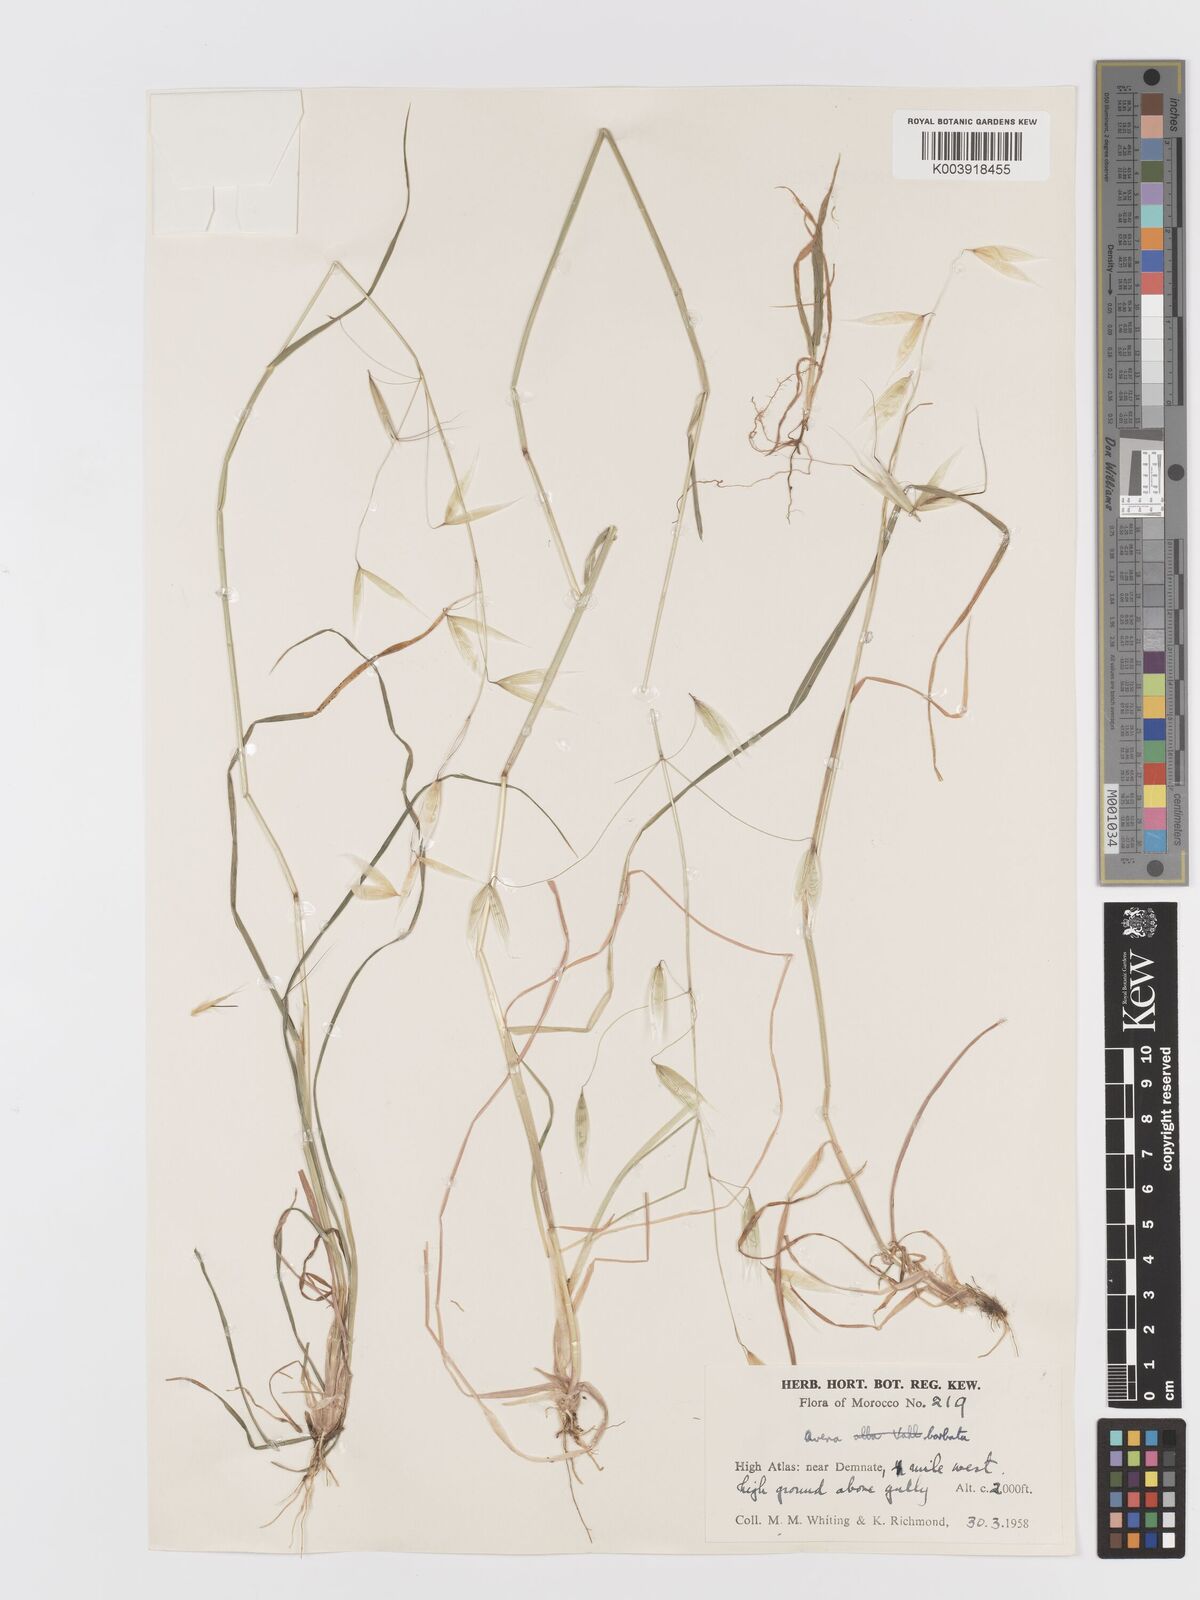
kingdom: Plantae
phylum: Tracheophyta
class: Liliopsida
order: Poales
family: Poaceae
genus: Avena
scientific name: Avena
